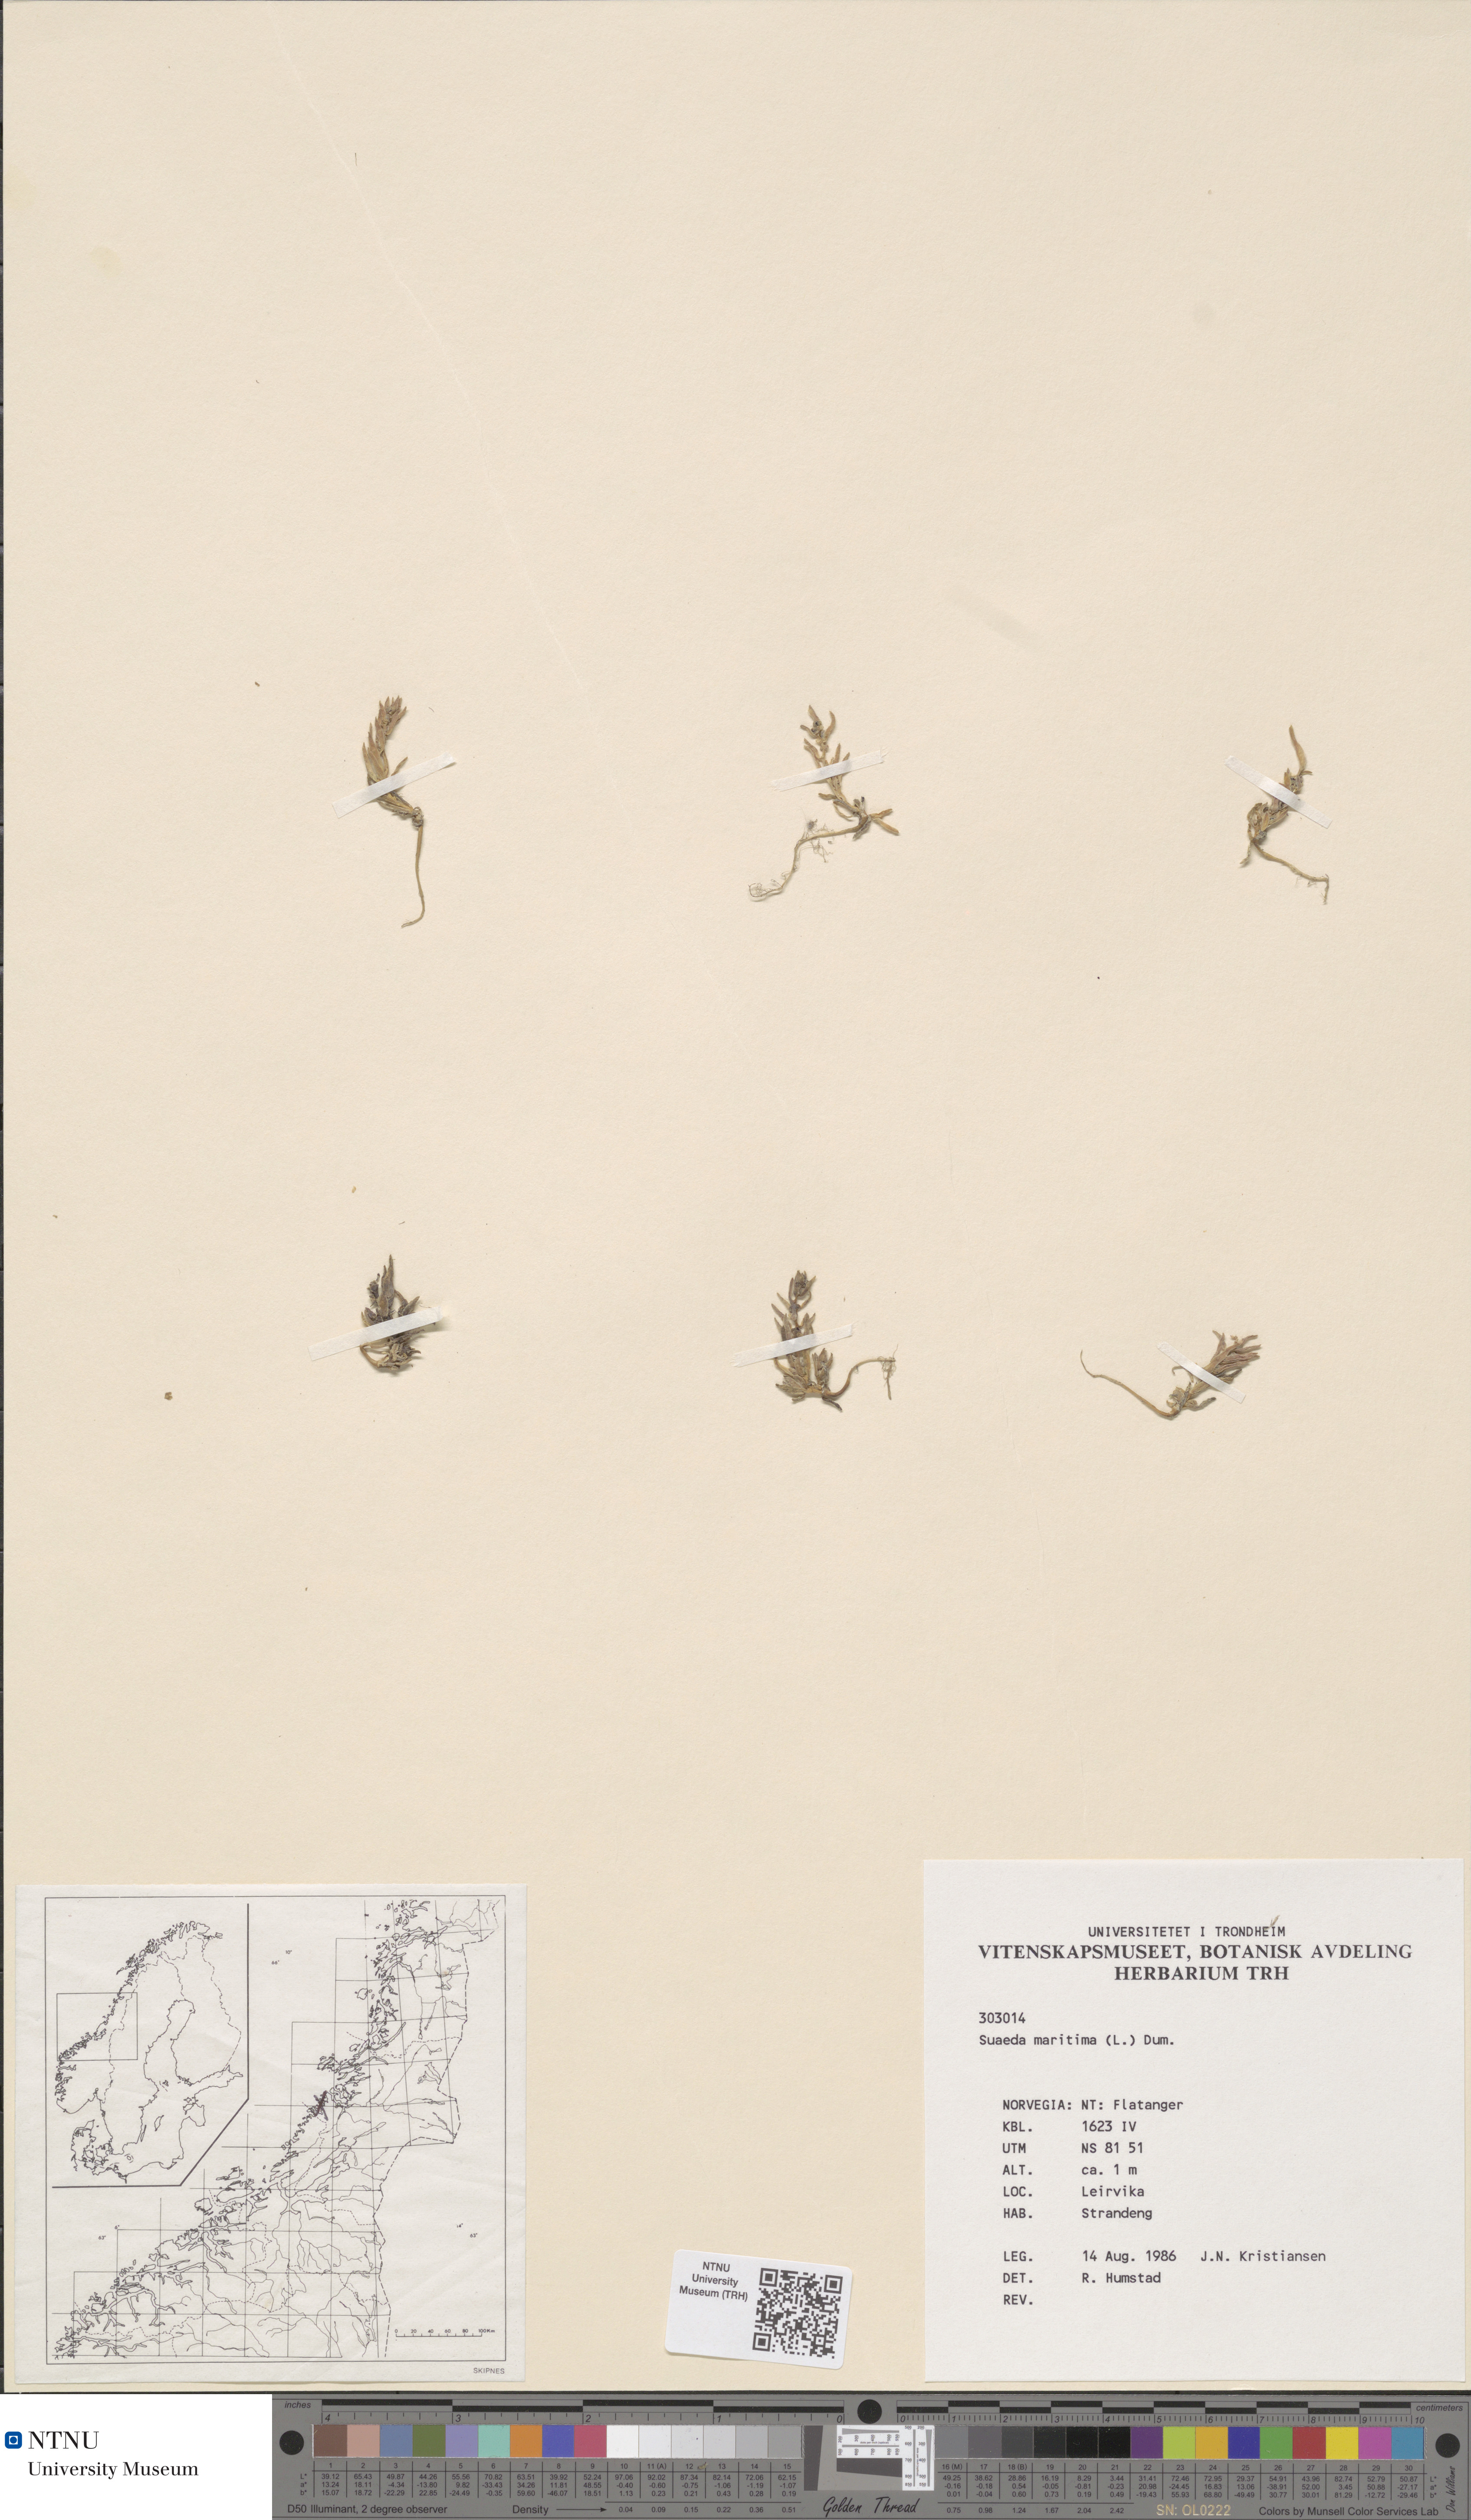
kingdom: Plantae
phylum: Tracheophyta
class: Magnoliopsida
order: Caryophyllales
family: Amaranthaceae
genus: Suaeda
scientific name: Suaeda maritima
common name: Annual sea-blite
